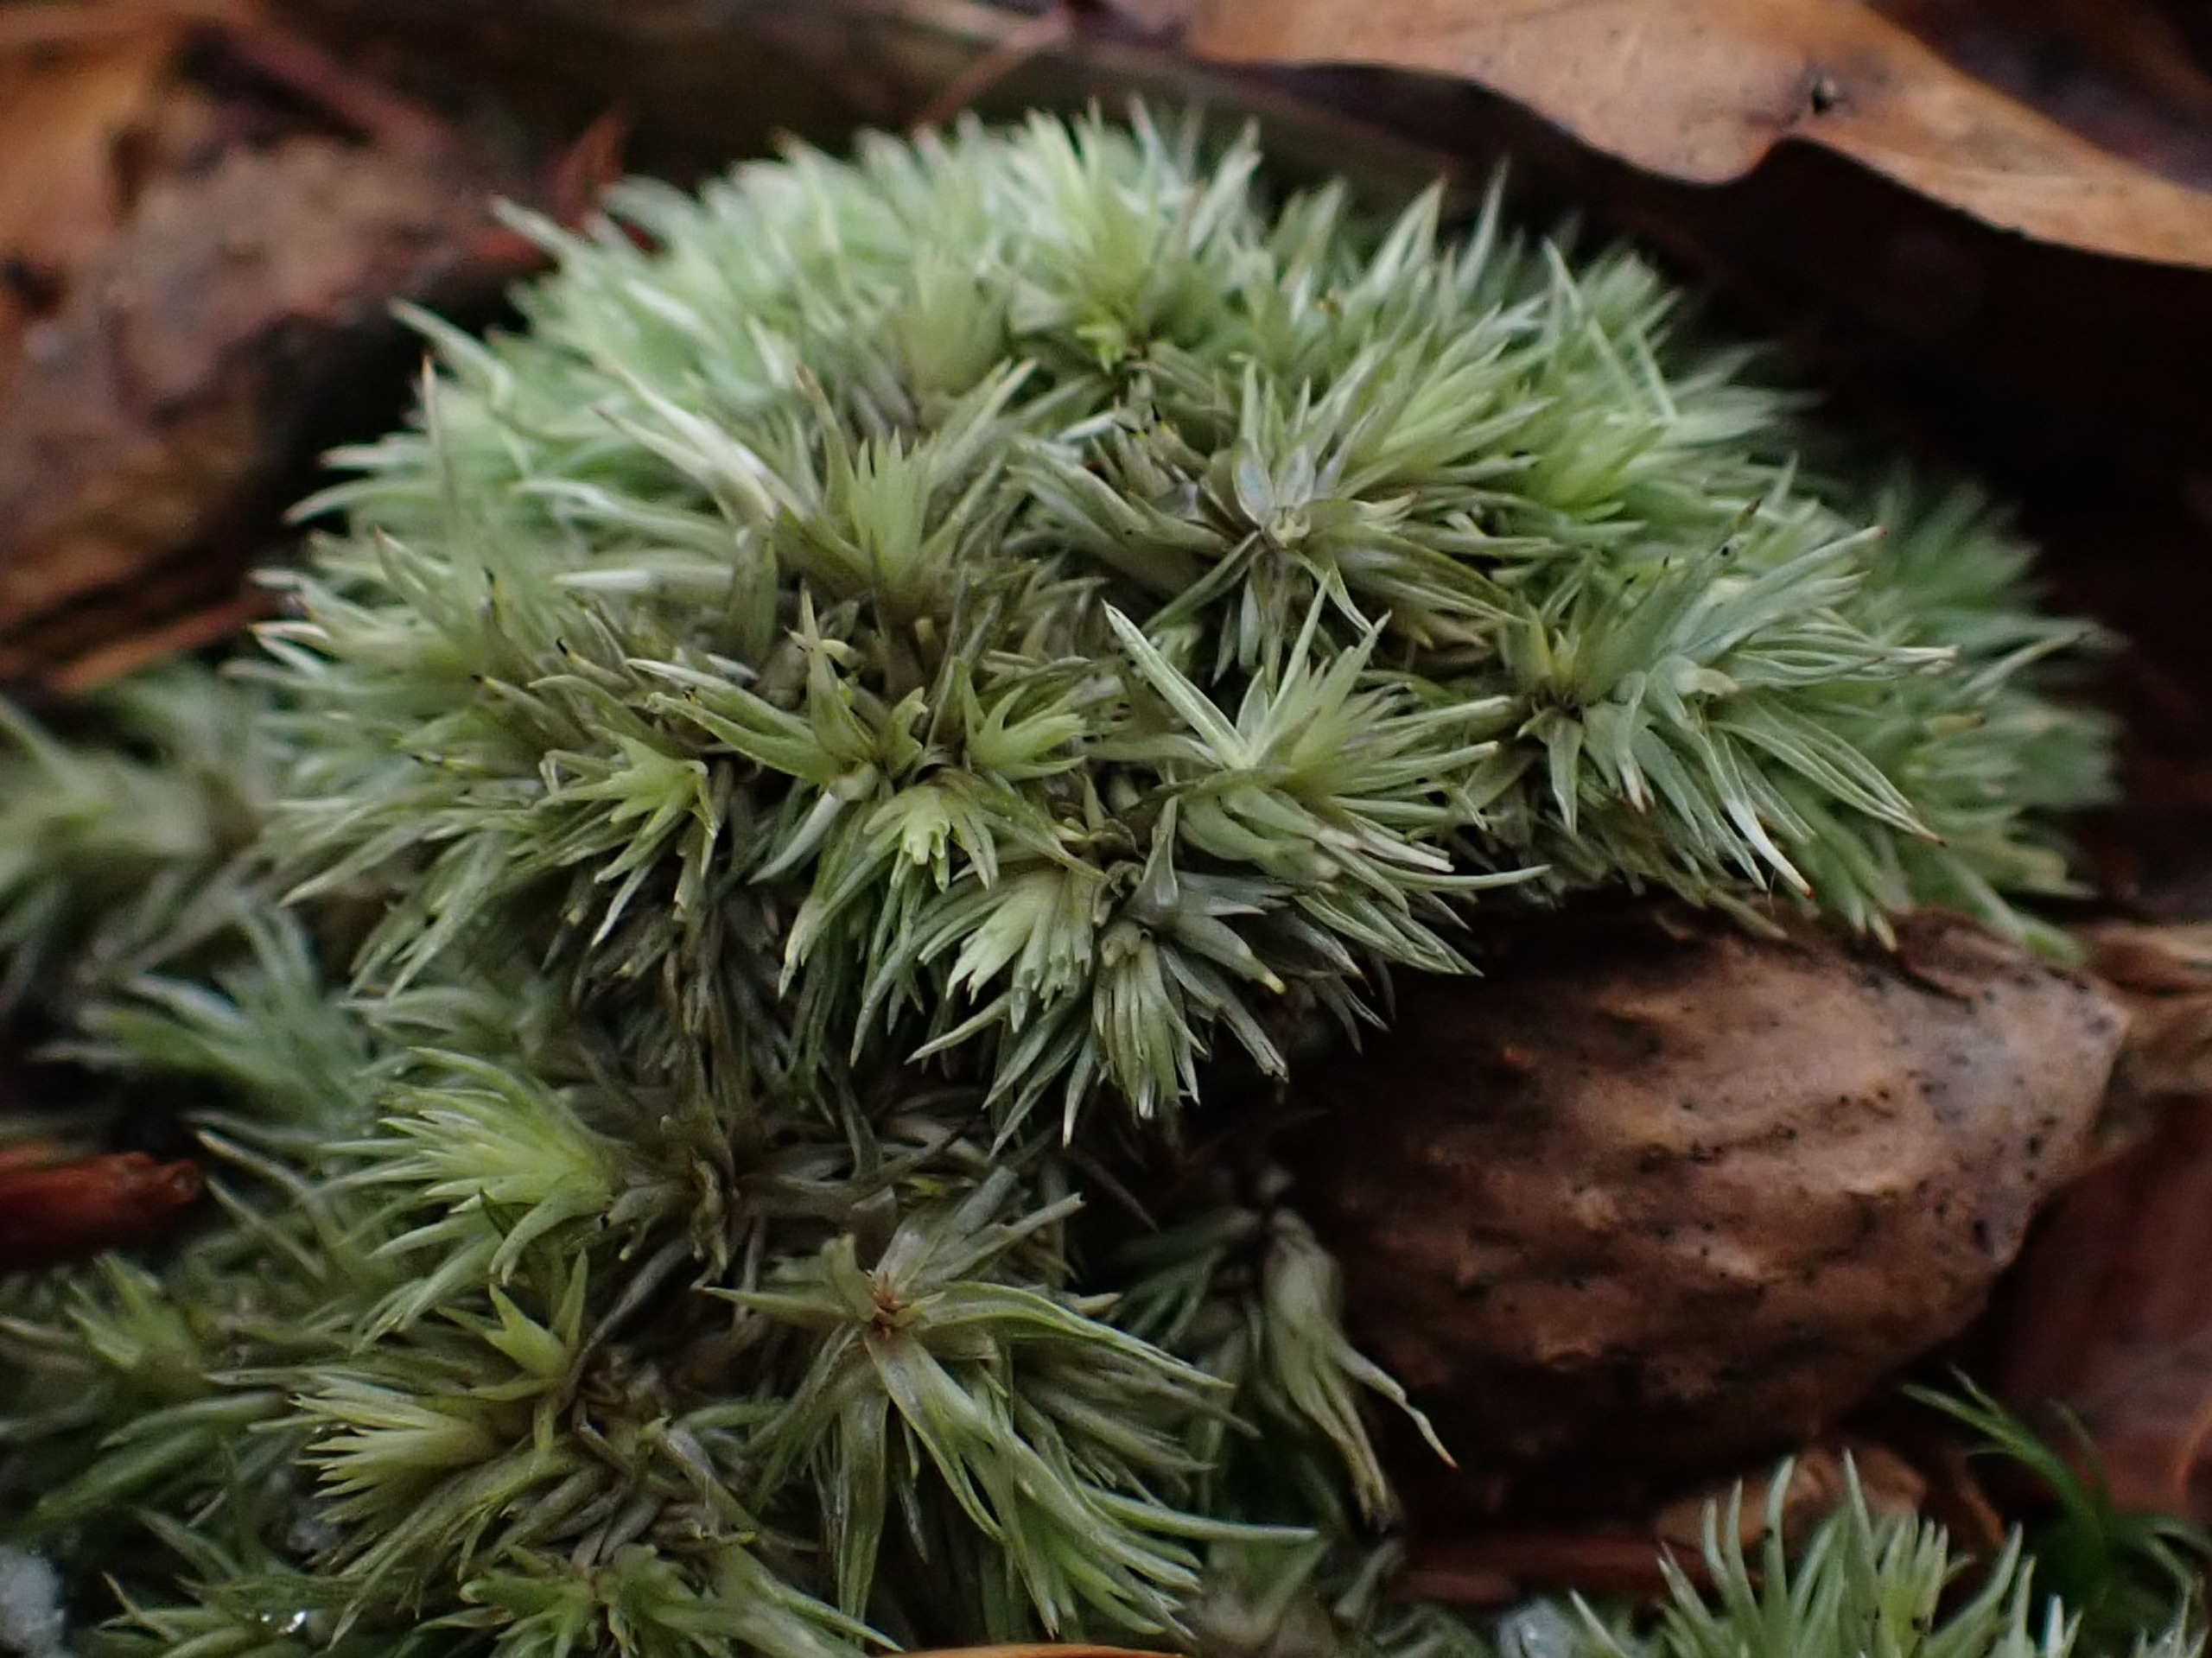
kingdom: Plantae
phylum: Bryophyta
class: Bryopsida
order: Dicranales
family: Leucobryaceae
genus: Leucobryum
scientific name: Leucobryum glaucum
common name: Almindelig hvidmos
